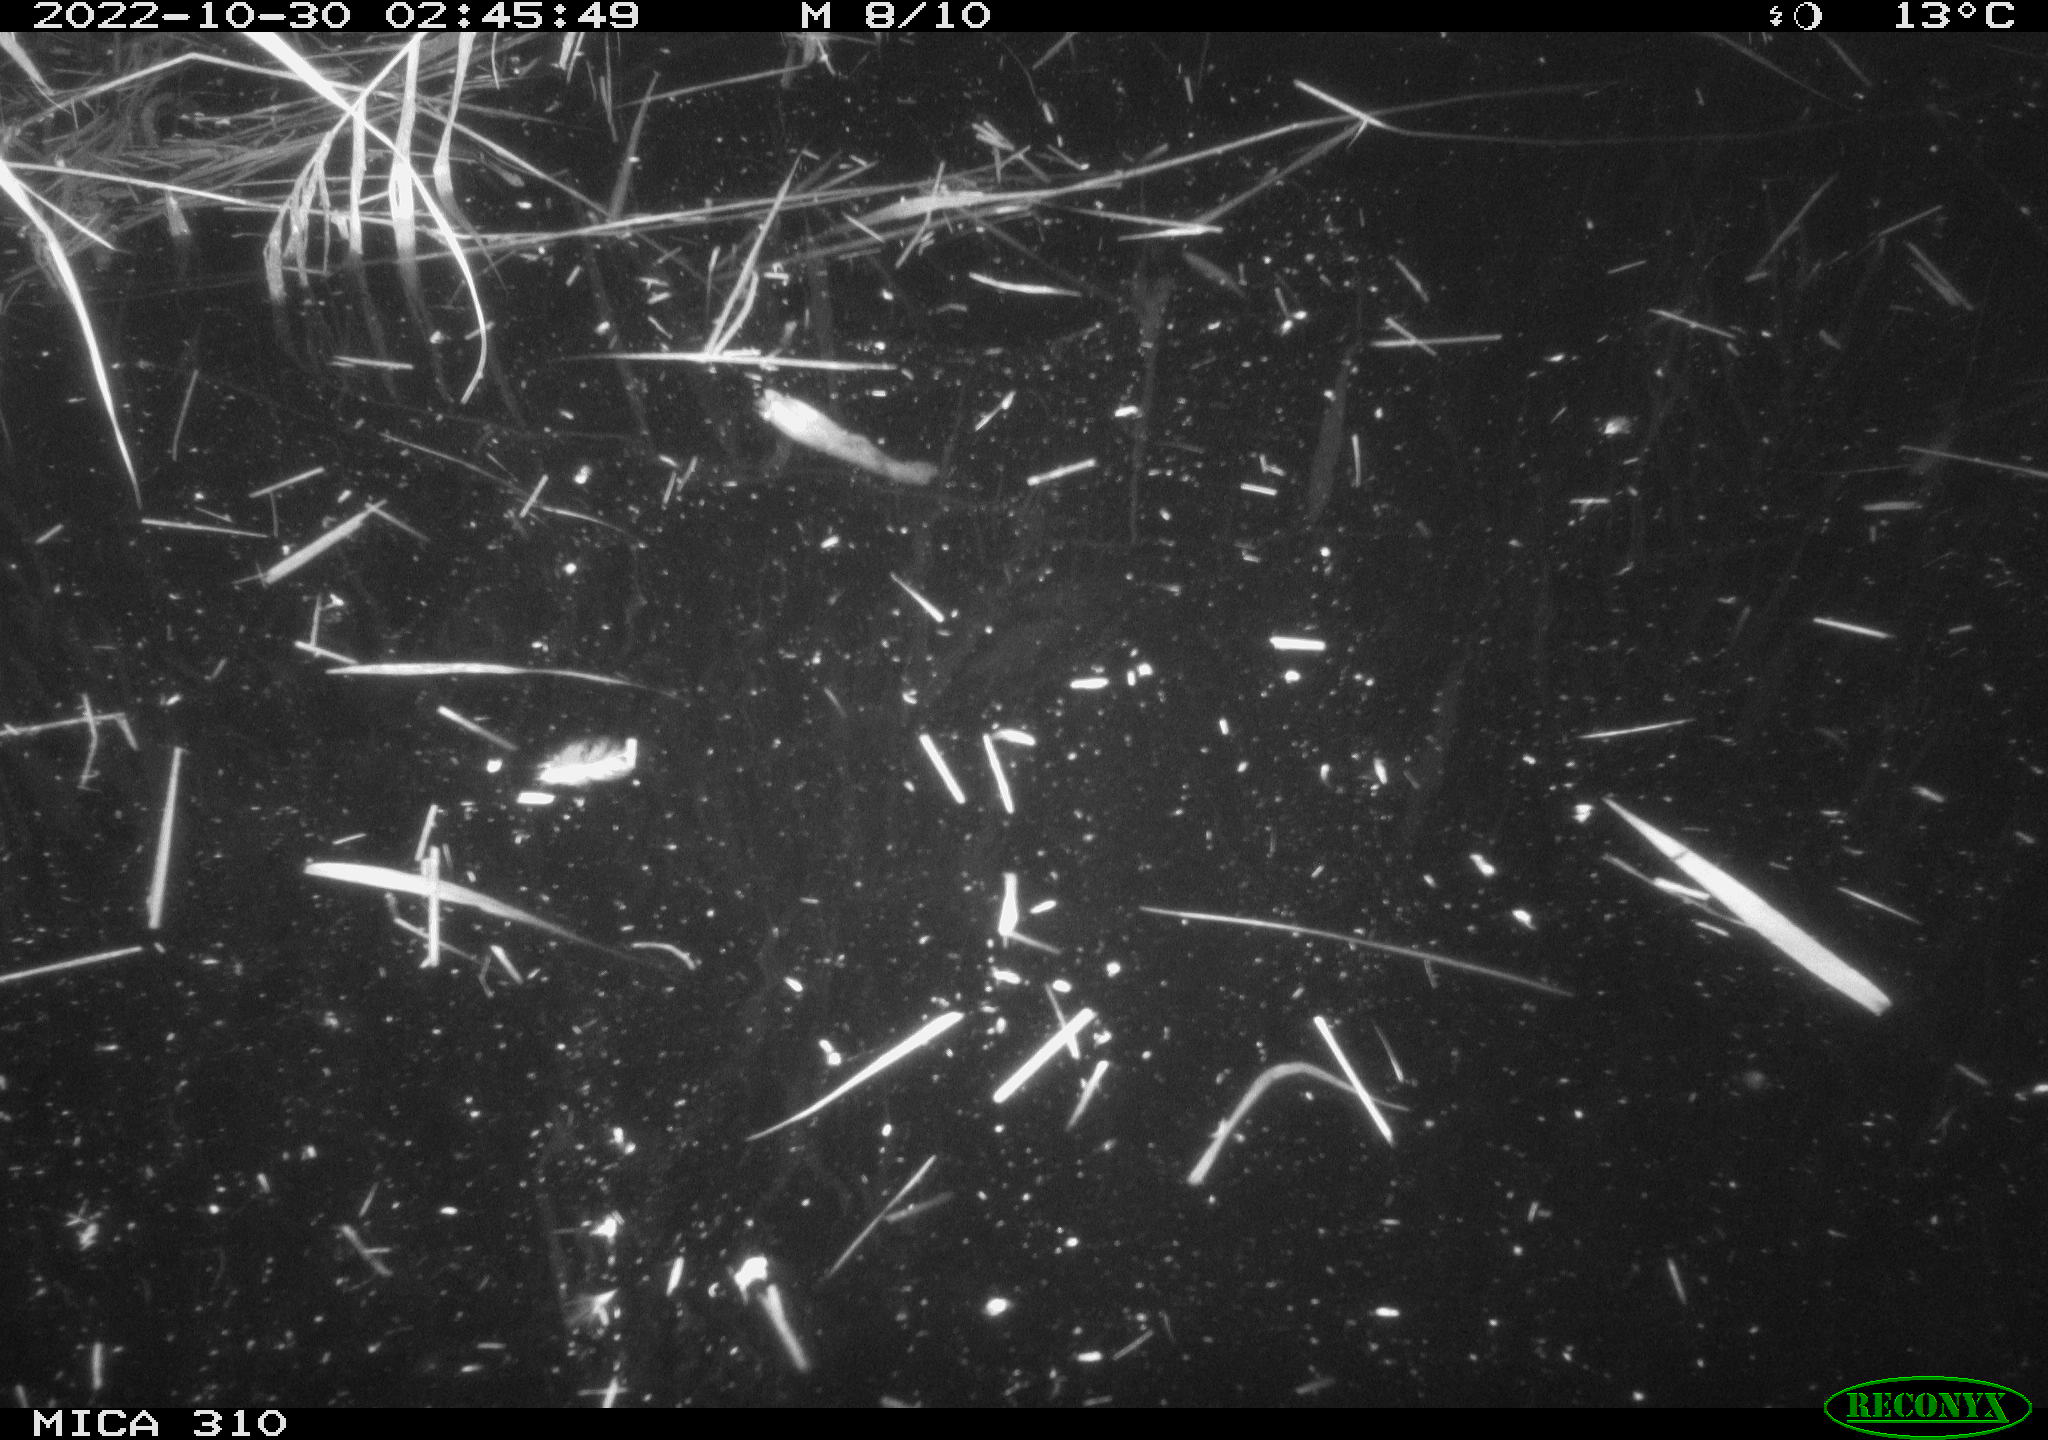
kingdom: Animalia
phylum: Chordata
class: Mammalia
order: Rodentia
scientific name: Rodentia
